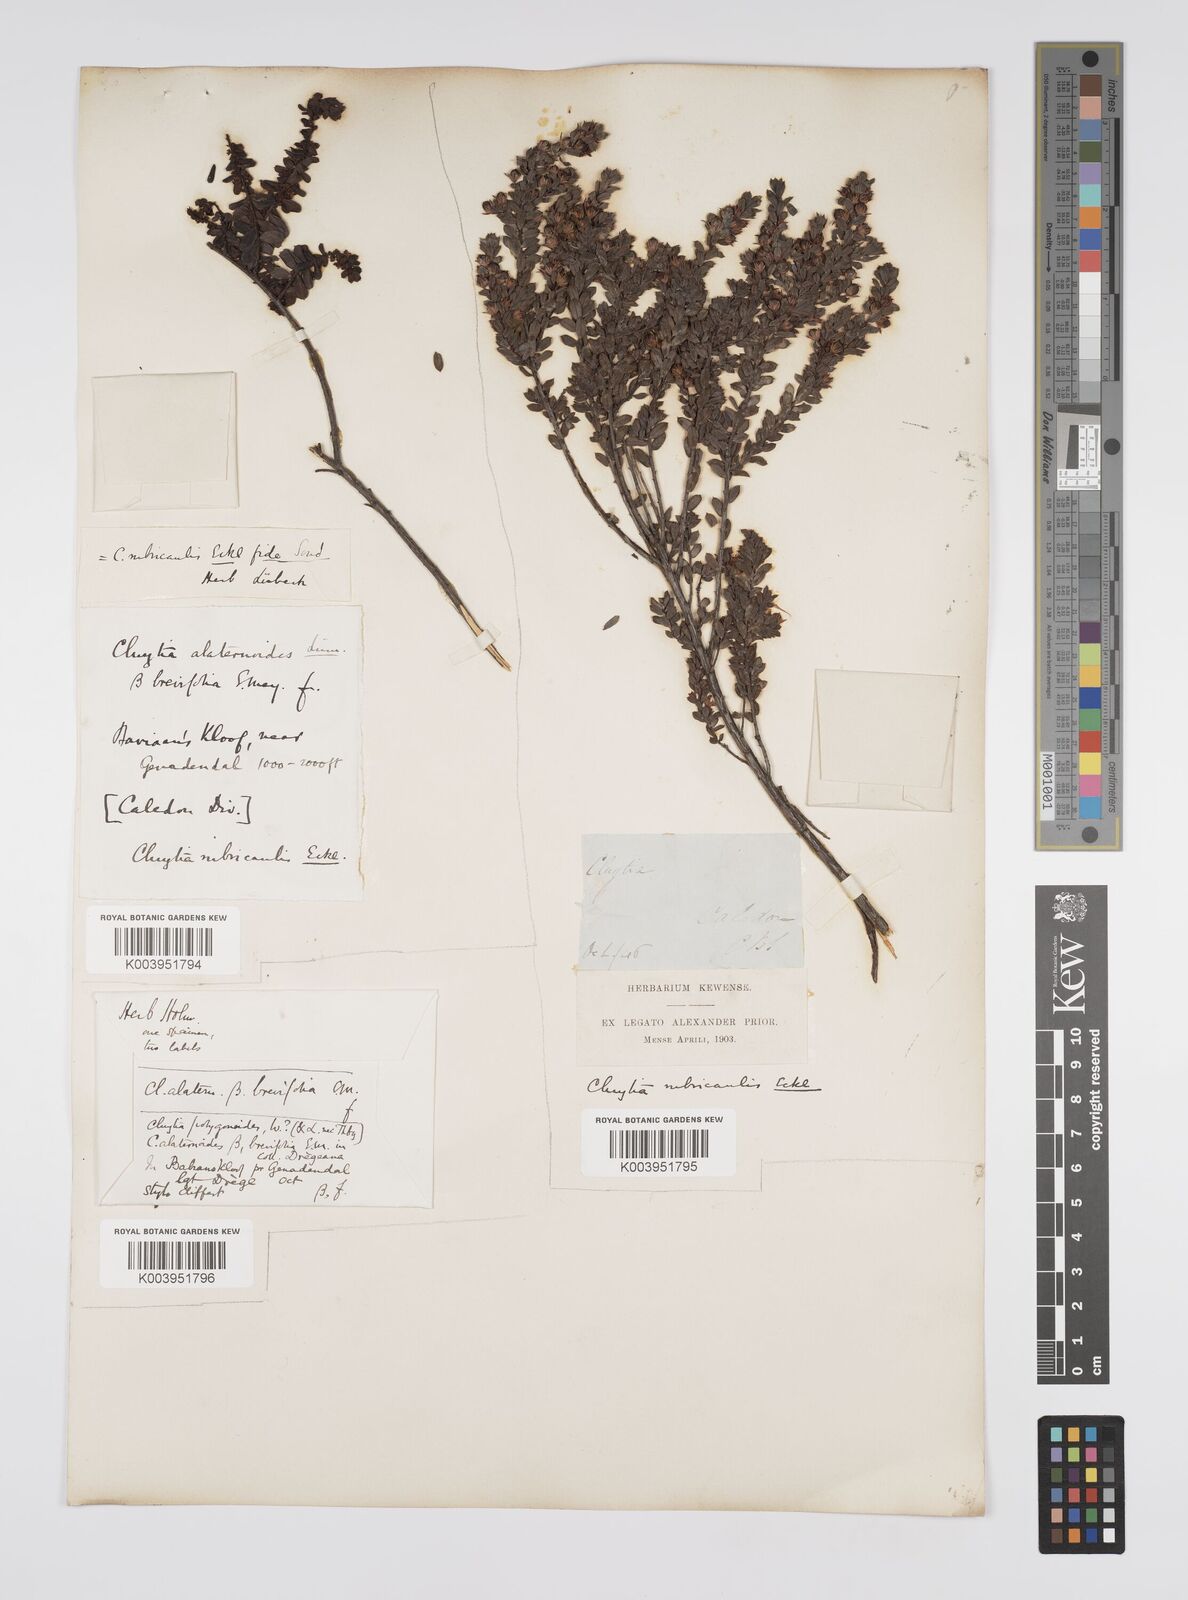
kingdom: Plantae
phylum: Tracheophyta
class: Magnoliopsida
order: Malpighiales
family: Peraceae
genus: Clutia
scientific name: Clutia rubricaulis
